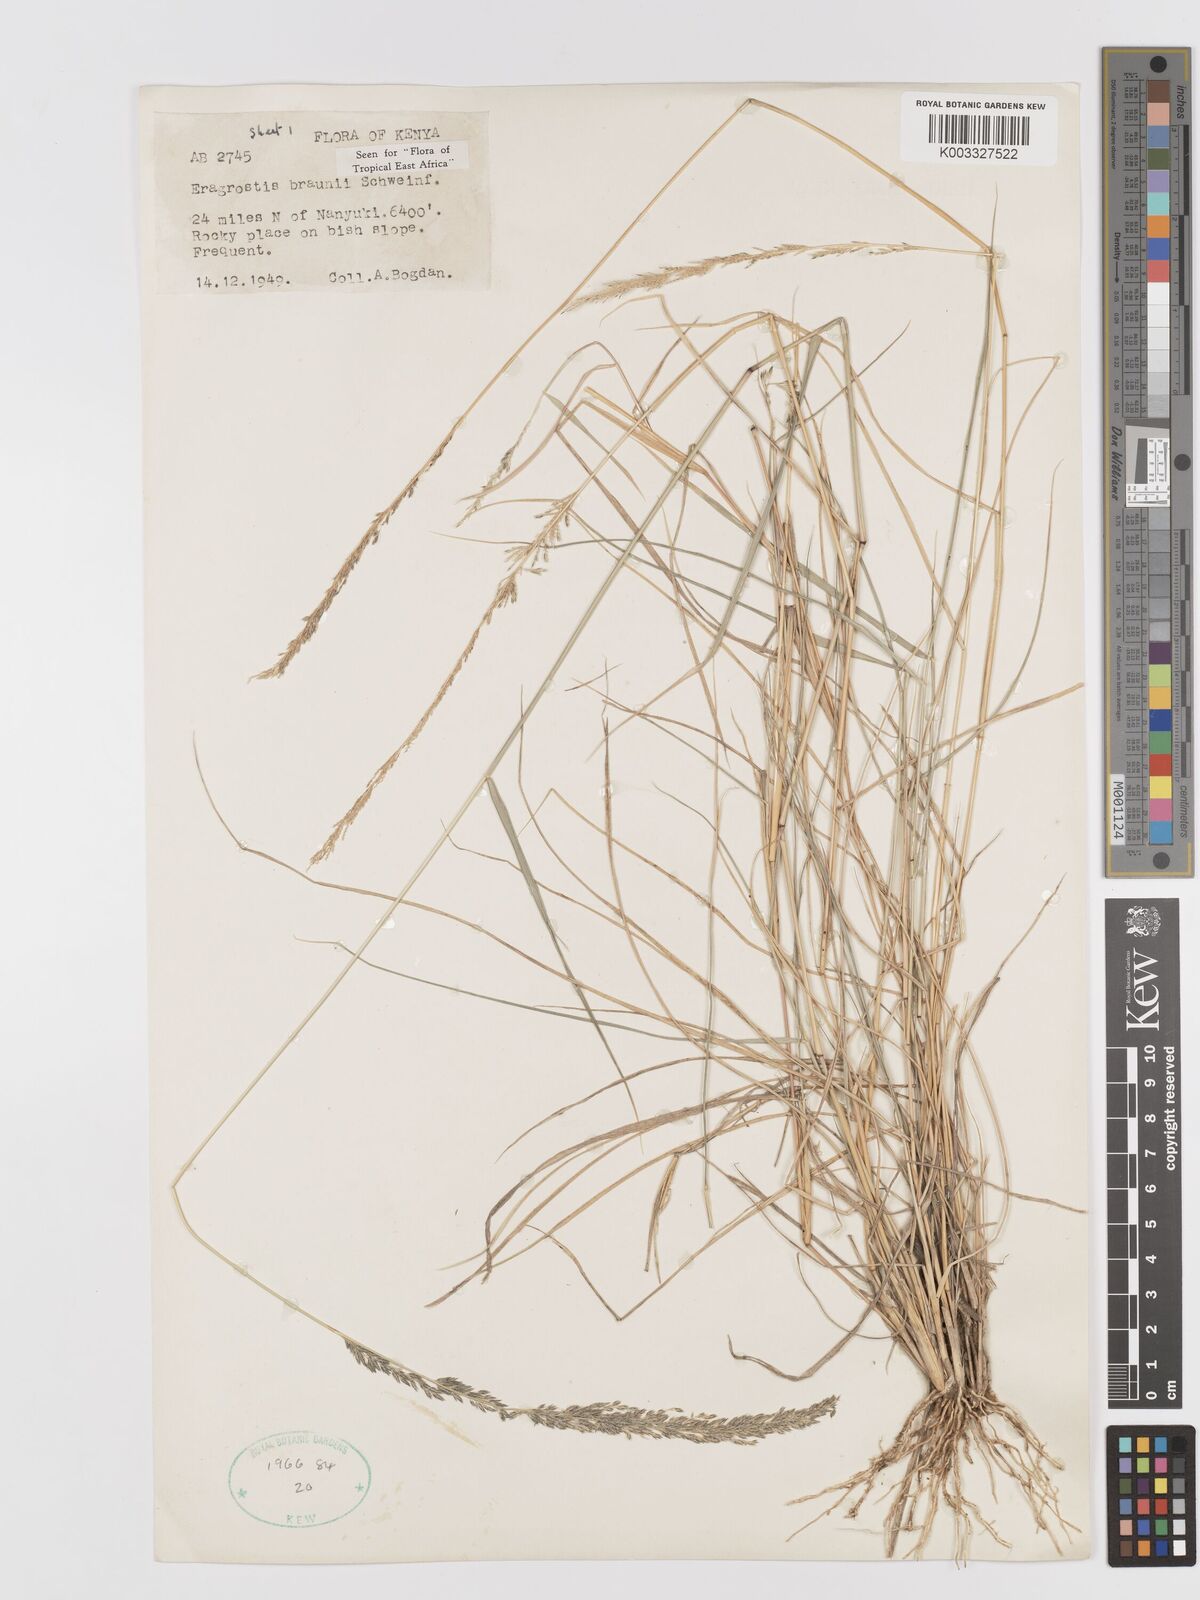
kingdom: Plantae
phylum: Tracheophyta
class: Liliopsida
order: Poales
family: Poaceae
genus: Eragrostis
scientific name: Eragrostis braunii
